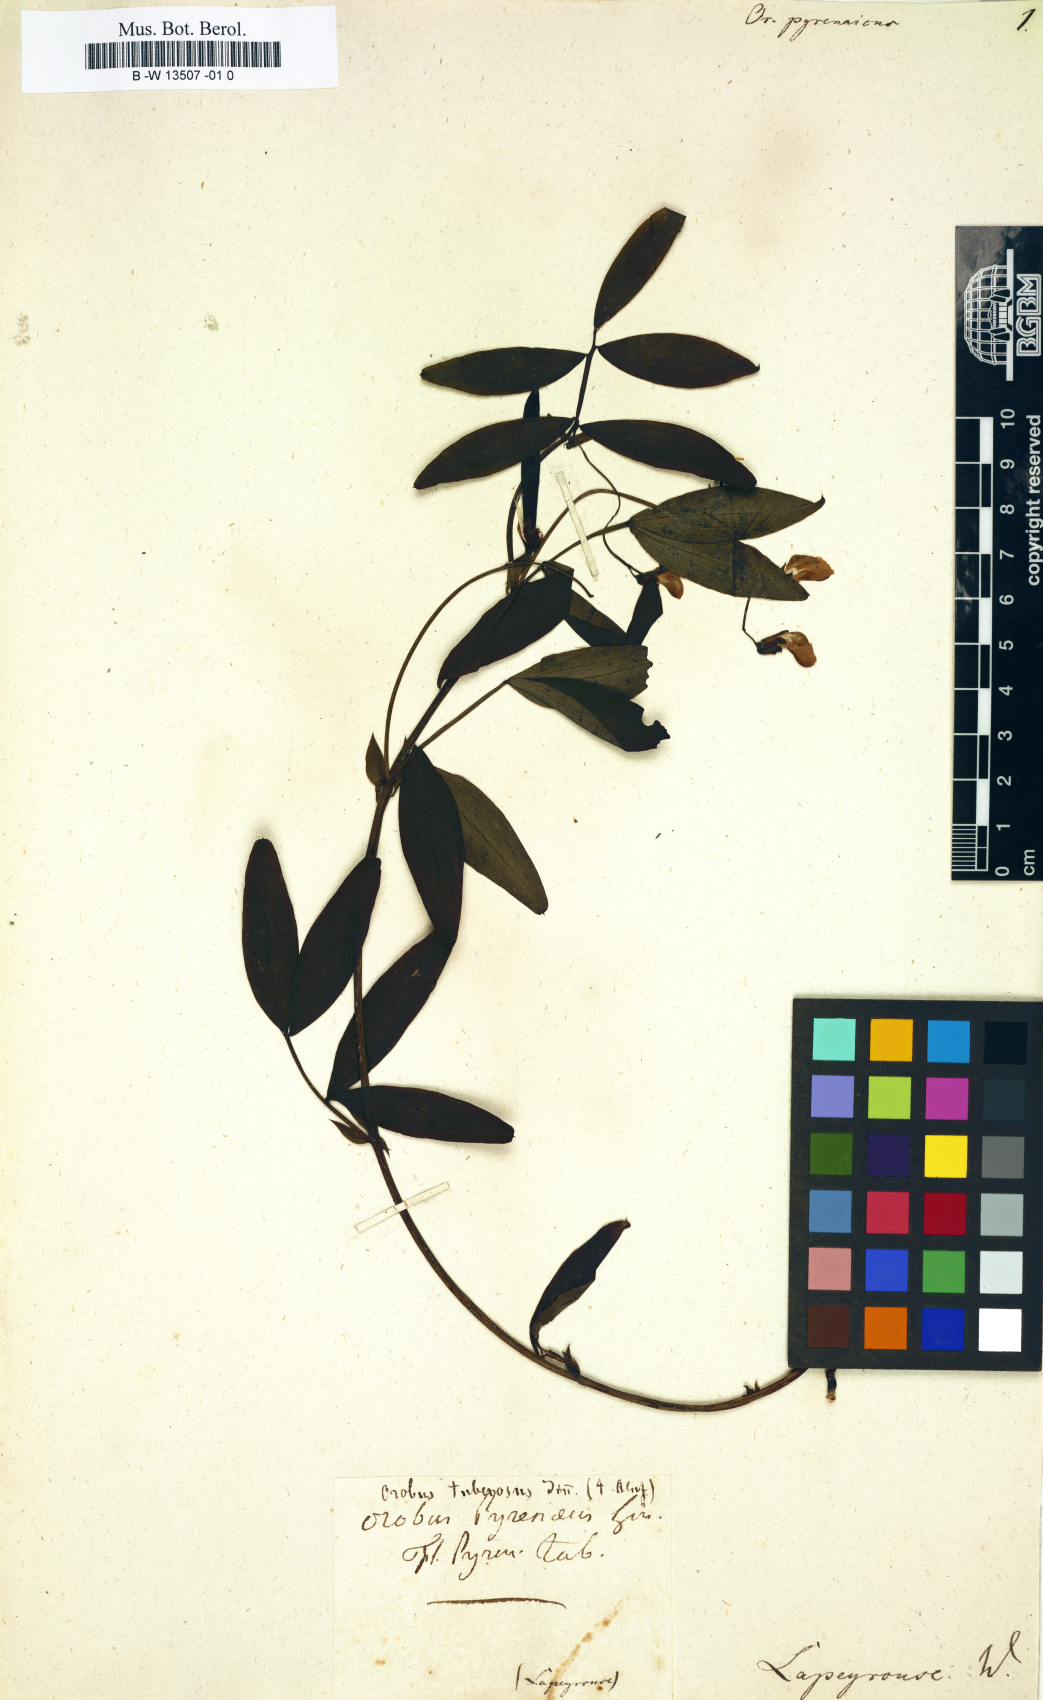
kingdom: Plantae
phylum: Tracheophyta
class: Magnoliopsida
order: Fabales
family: Fabaceae
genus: Lathyrus
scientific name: Lathyrus linifolius
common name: Bitter-vetch
